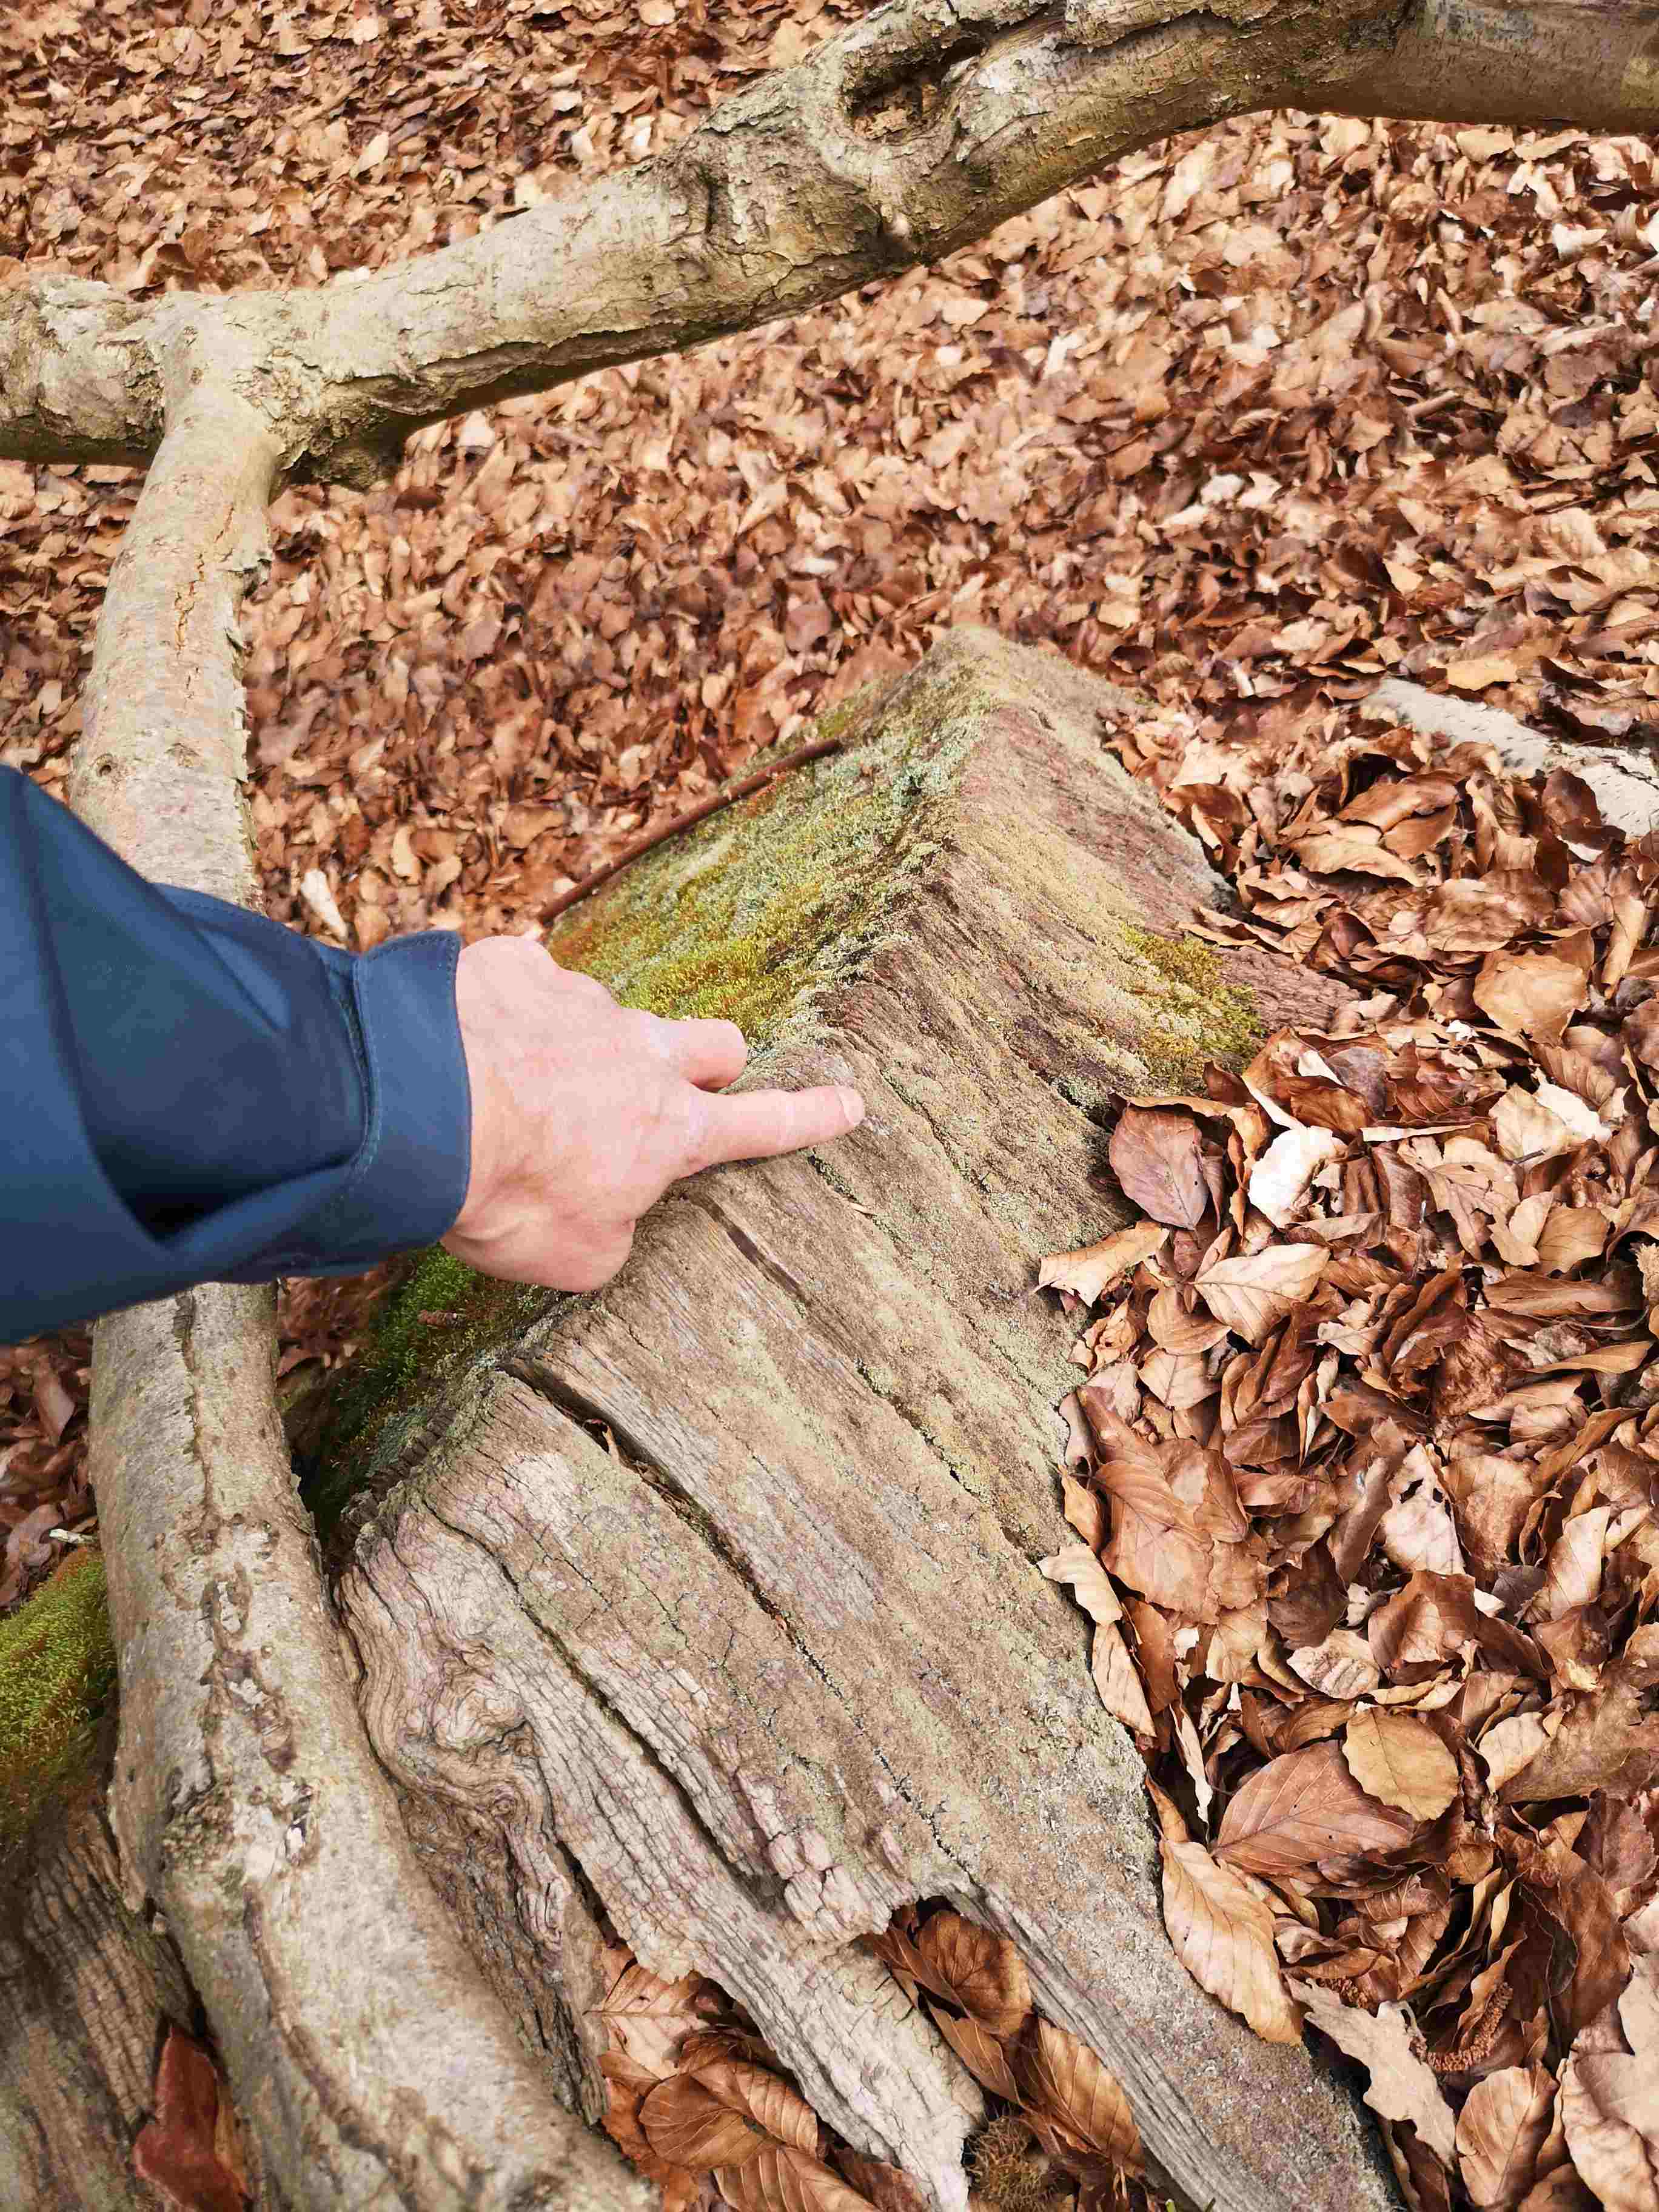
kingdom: Fungi
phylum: Ascomycota
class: Lecanoromycetes
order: Lecanorales
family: Cladoniaceae
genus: Cladonia
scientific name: Cladonia coniocraea
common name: træfods-bægerlav
